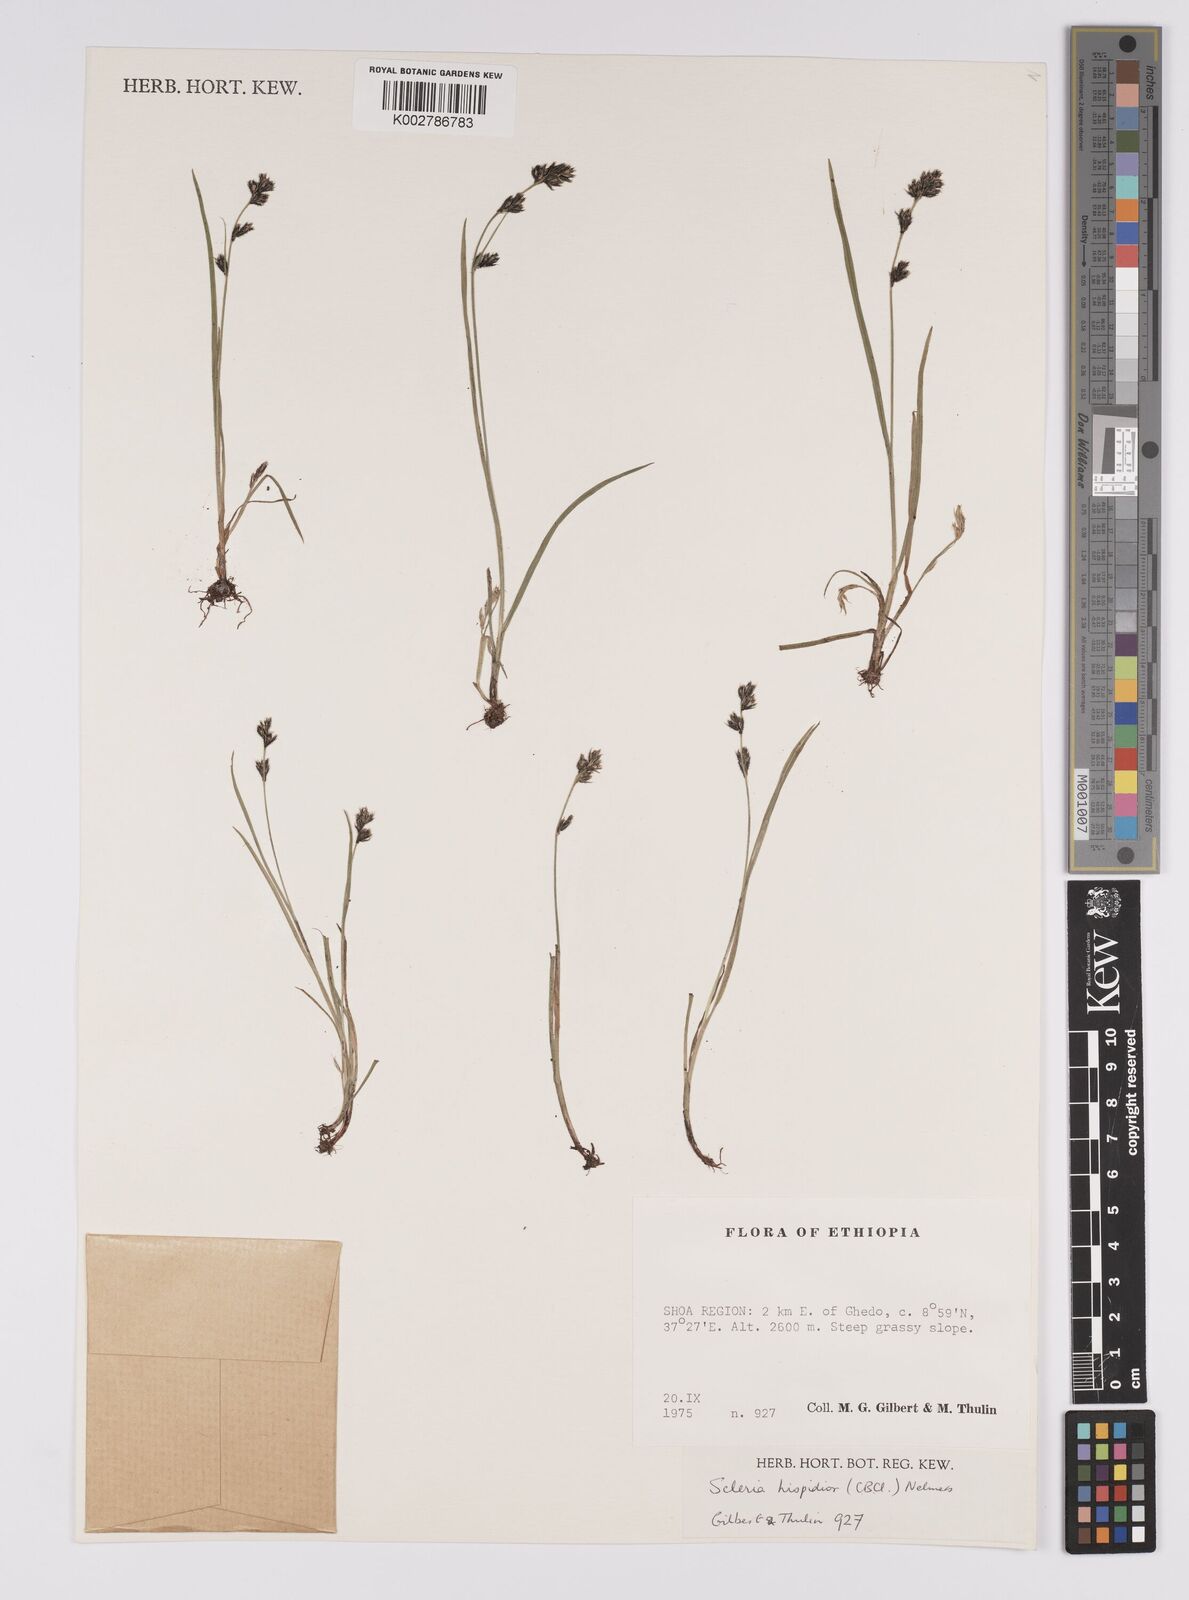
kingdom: Plantae
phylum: Tracheophyta
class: Liliopsida
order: Poales
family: Cyperaceae
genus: Scleria
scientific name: Scleria hispidula
